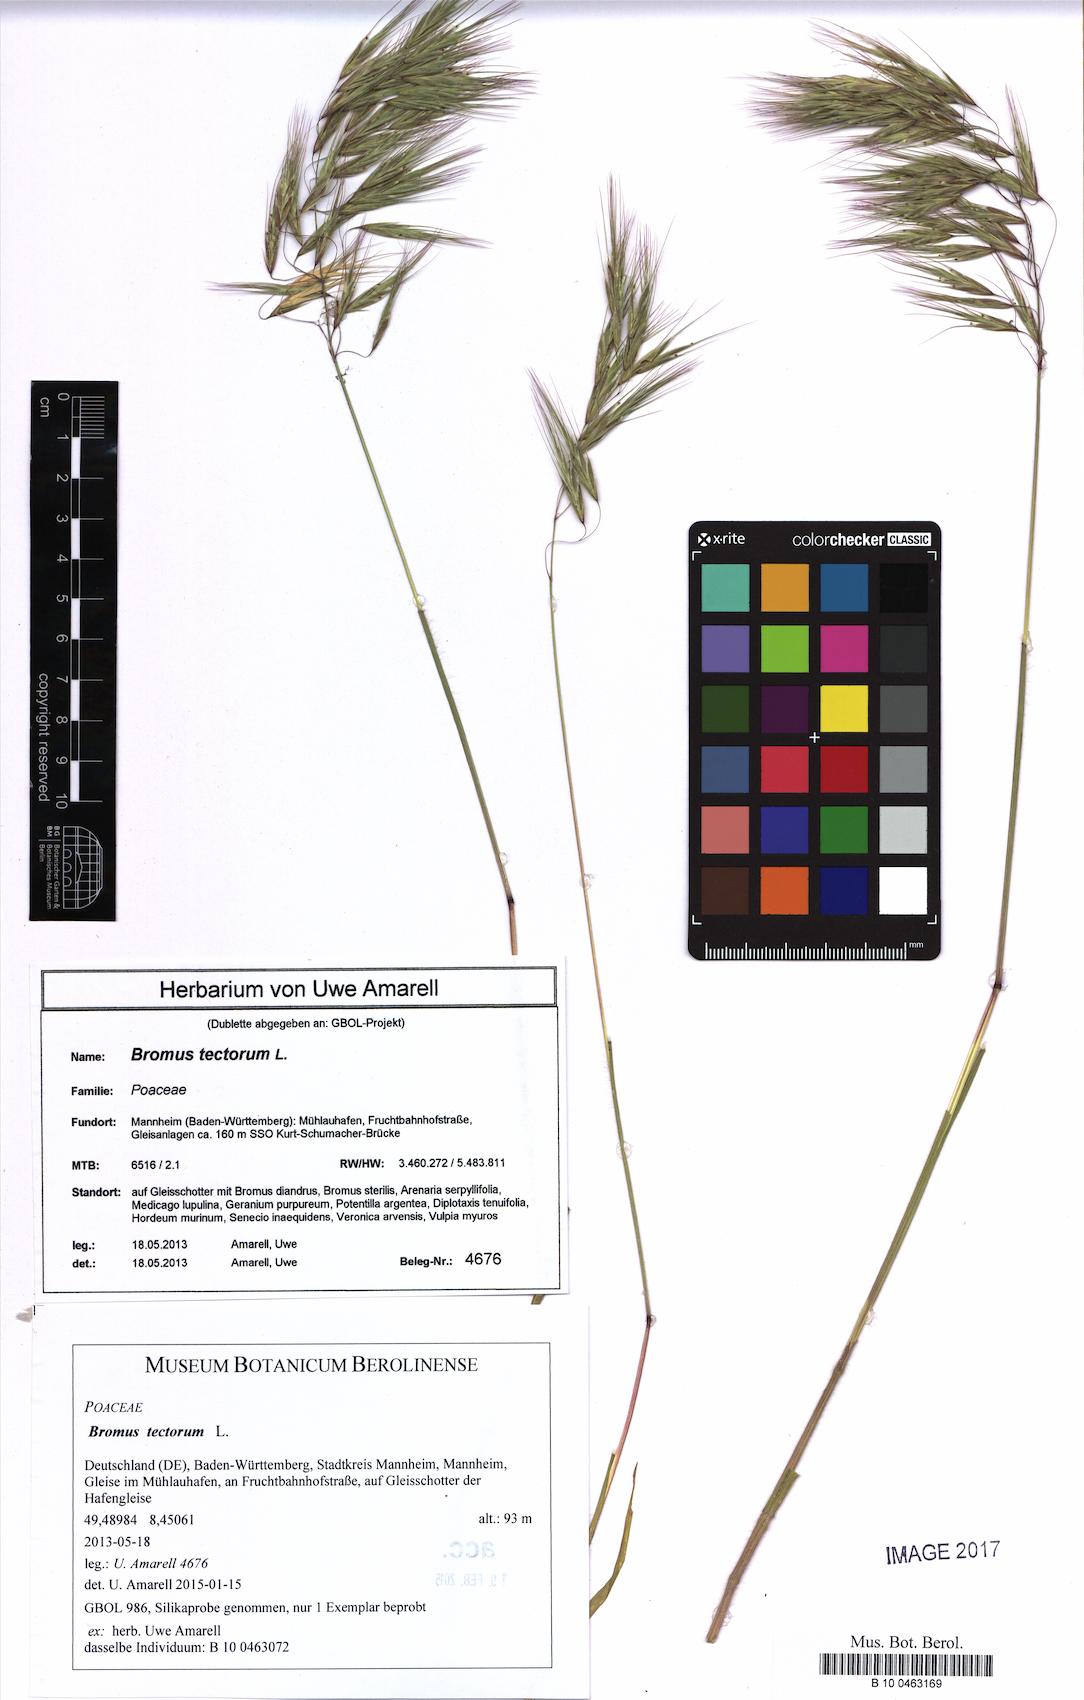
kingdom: Plantae
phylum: Tracheophyta
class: Liliopsida
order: Poales
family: Poaceae
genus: Bromus
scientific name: Bromus tectorum
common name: Cheatgrass
